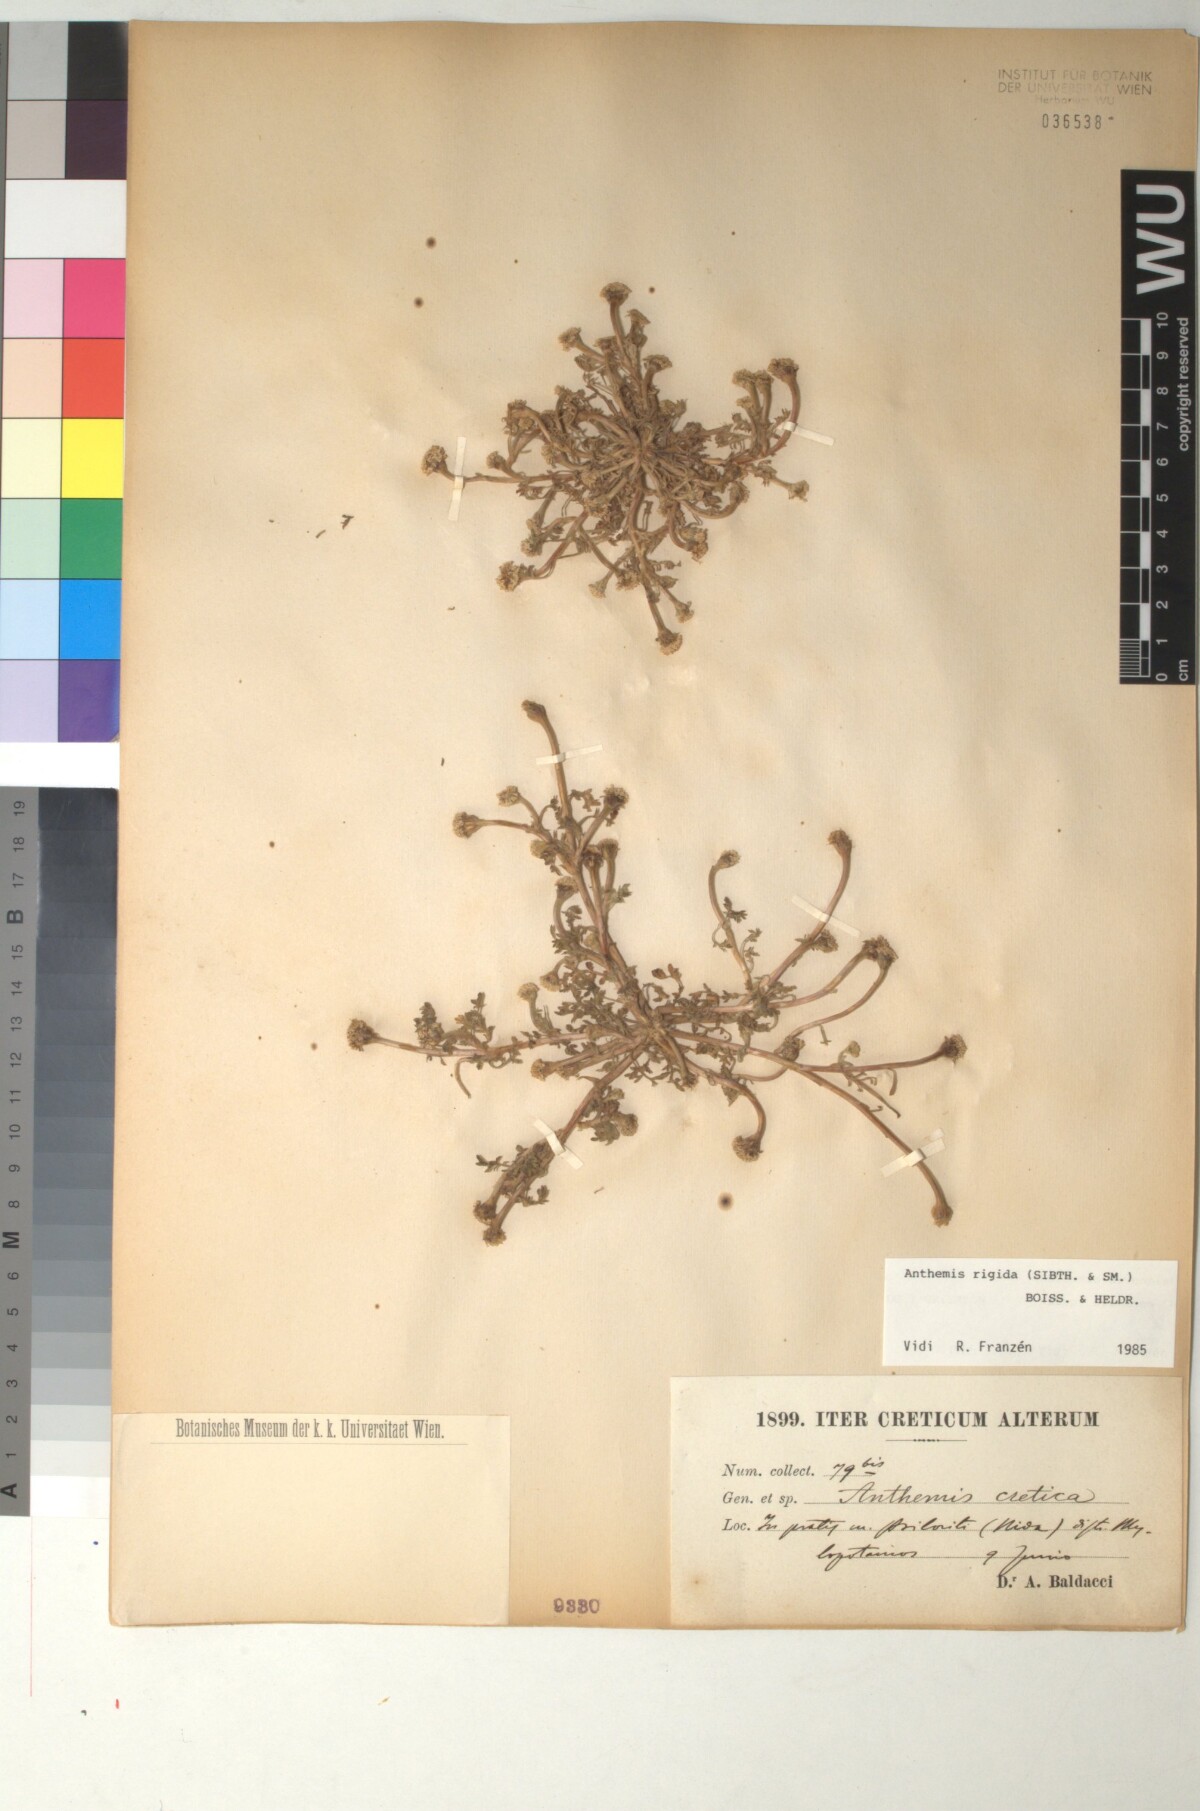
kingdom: Plantae
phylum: Tracheophyta
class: Magnoliopsida
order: Asterales
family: Asteraceae
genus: Anthemis
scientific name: Anthemis rigida
